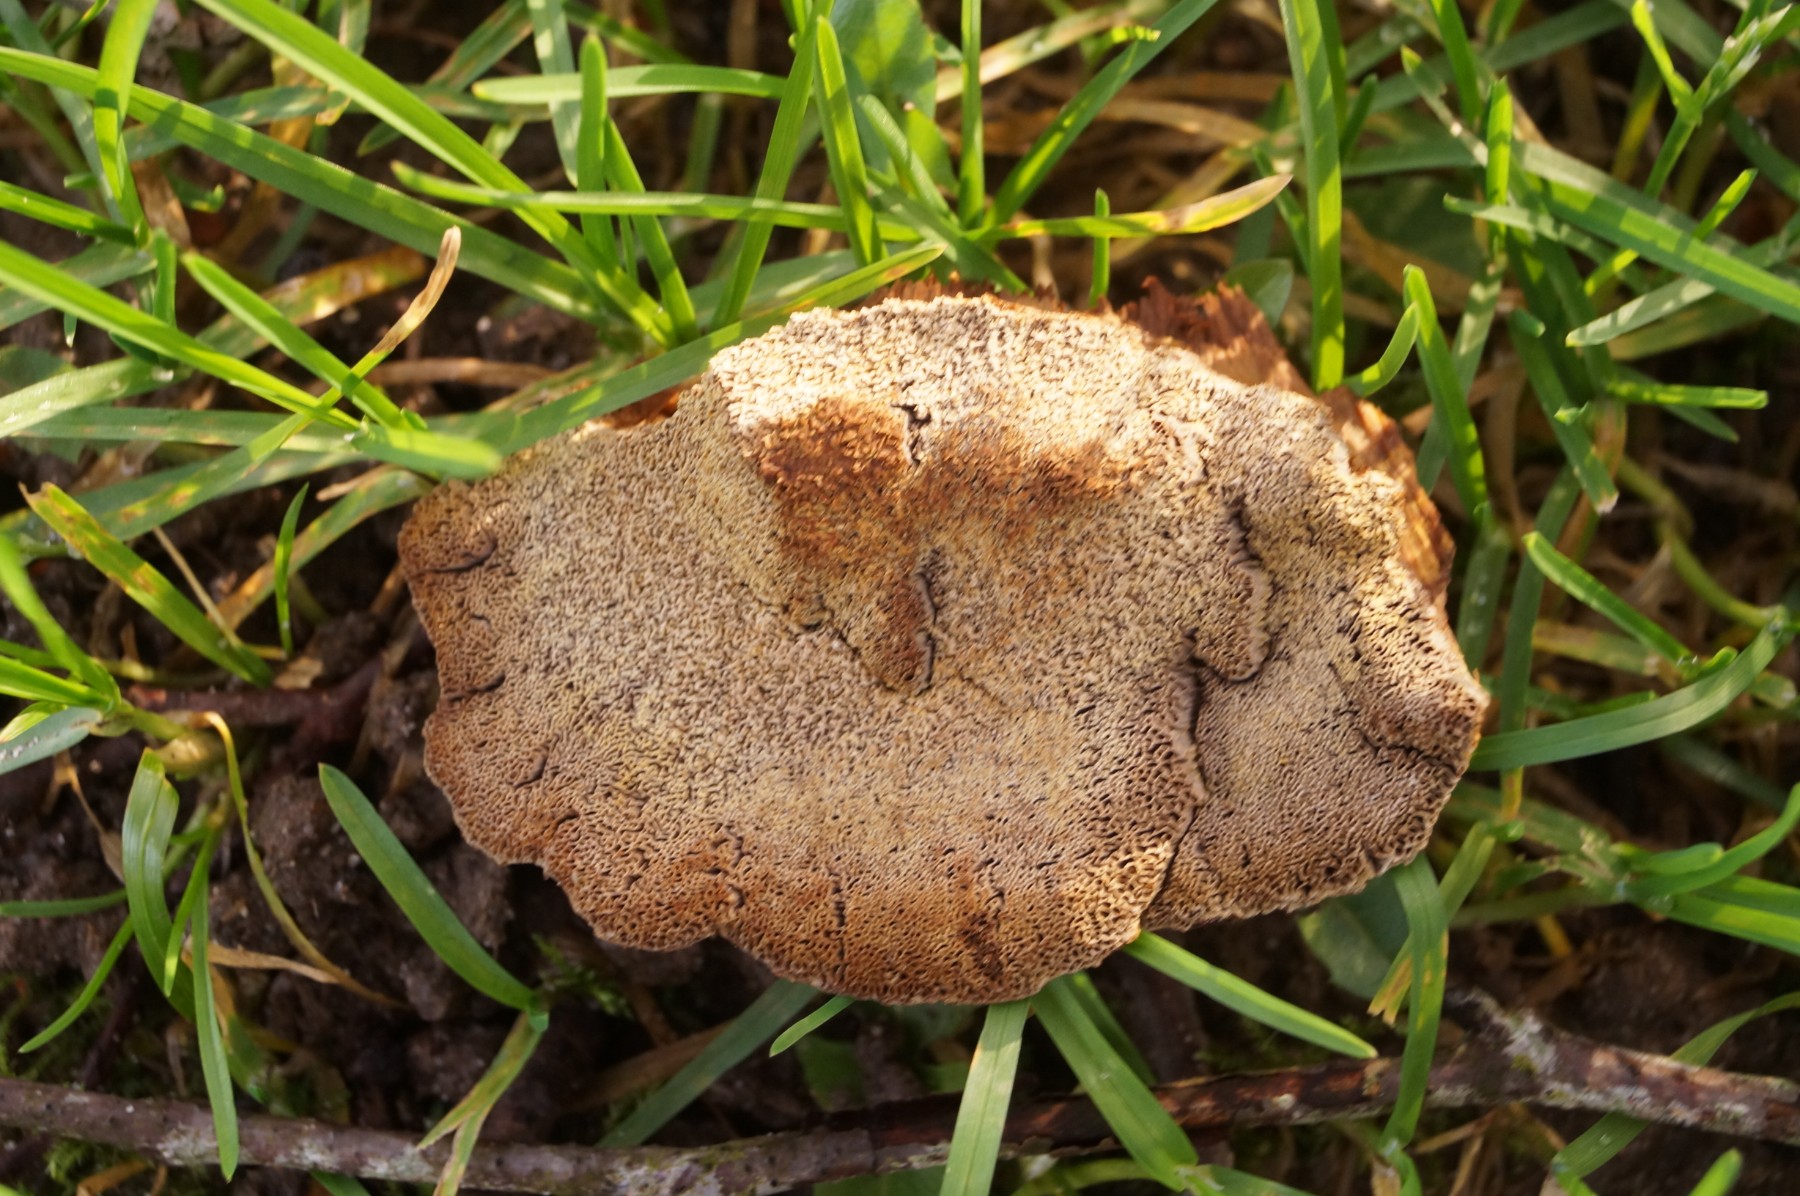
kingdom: Fungi
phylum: Basidiomycota
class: Agaricomycetes
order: Polyporales
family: Polyporaceae
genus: Daedaleopsis
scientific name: Daedaleopsis confragosa
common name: rødmende læderporesvamp
